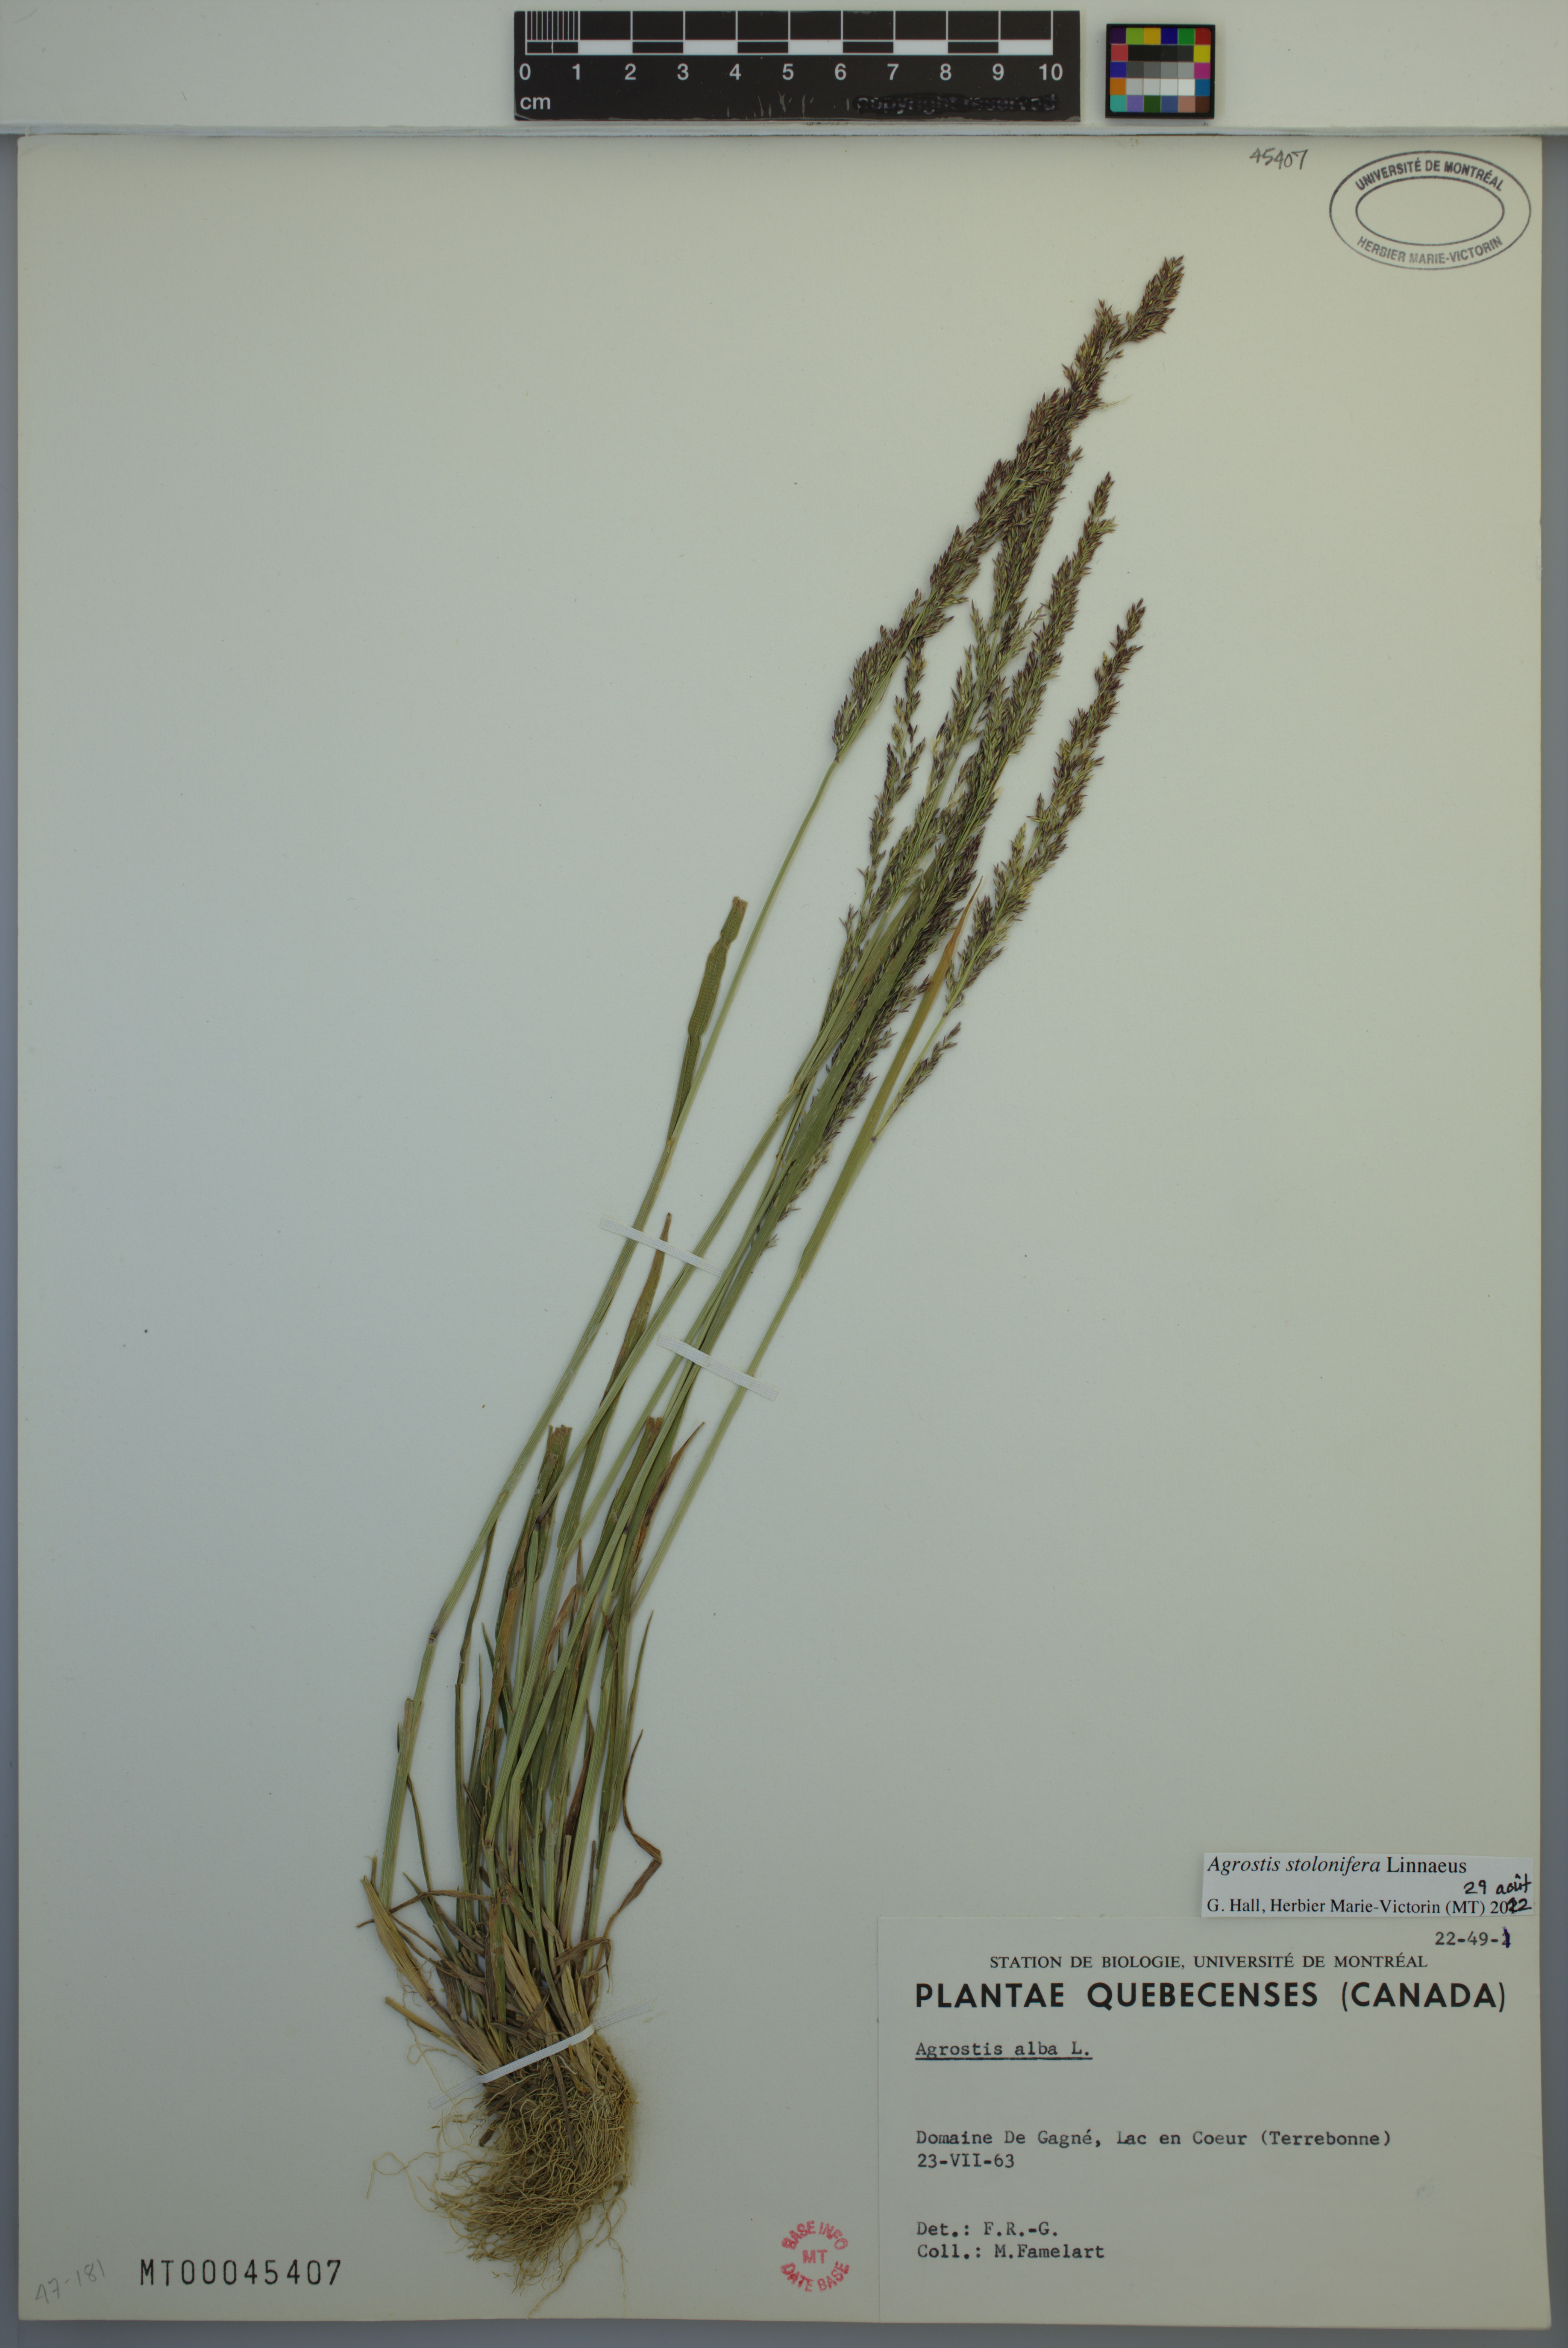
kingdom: Plantae
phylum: Tracheophyta
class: Liliopsida
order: Poales
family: Poaceae
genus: Agrostis
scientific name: Agrostis stolonifera
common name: Creeping bentgrass
